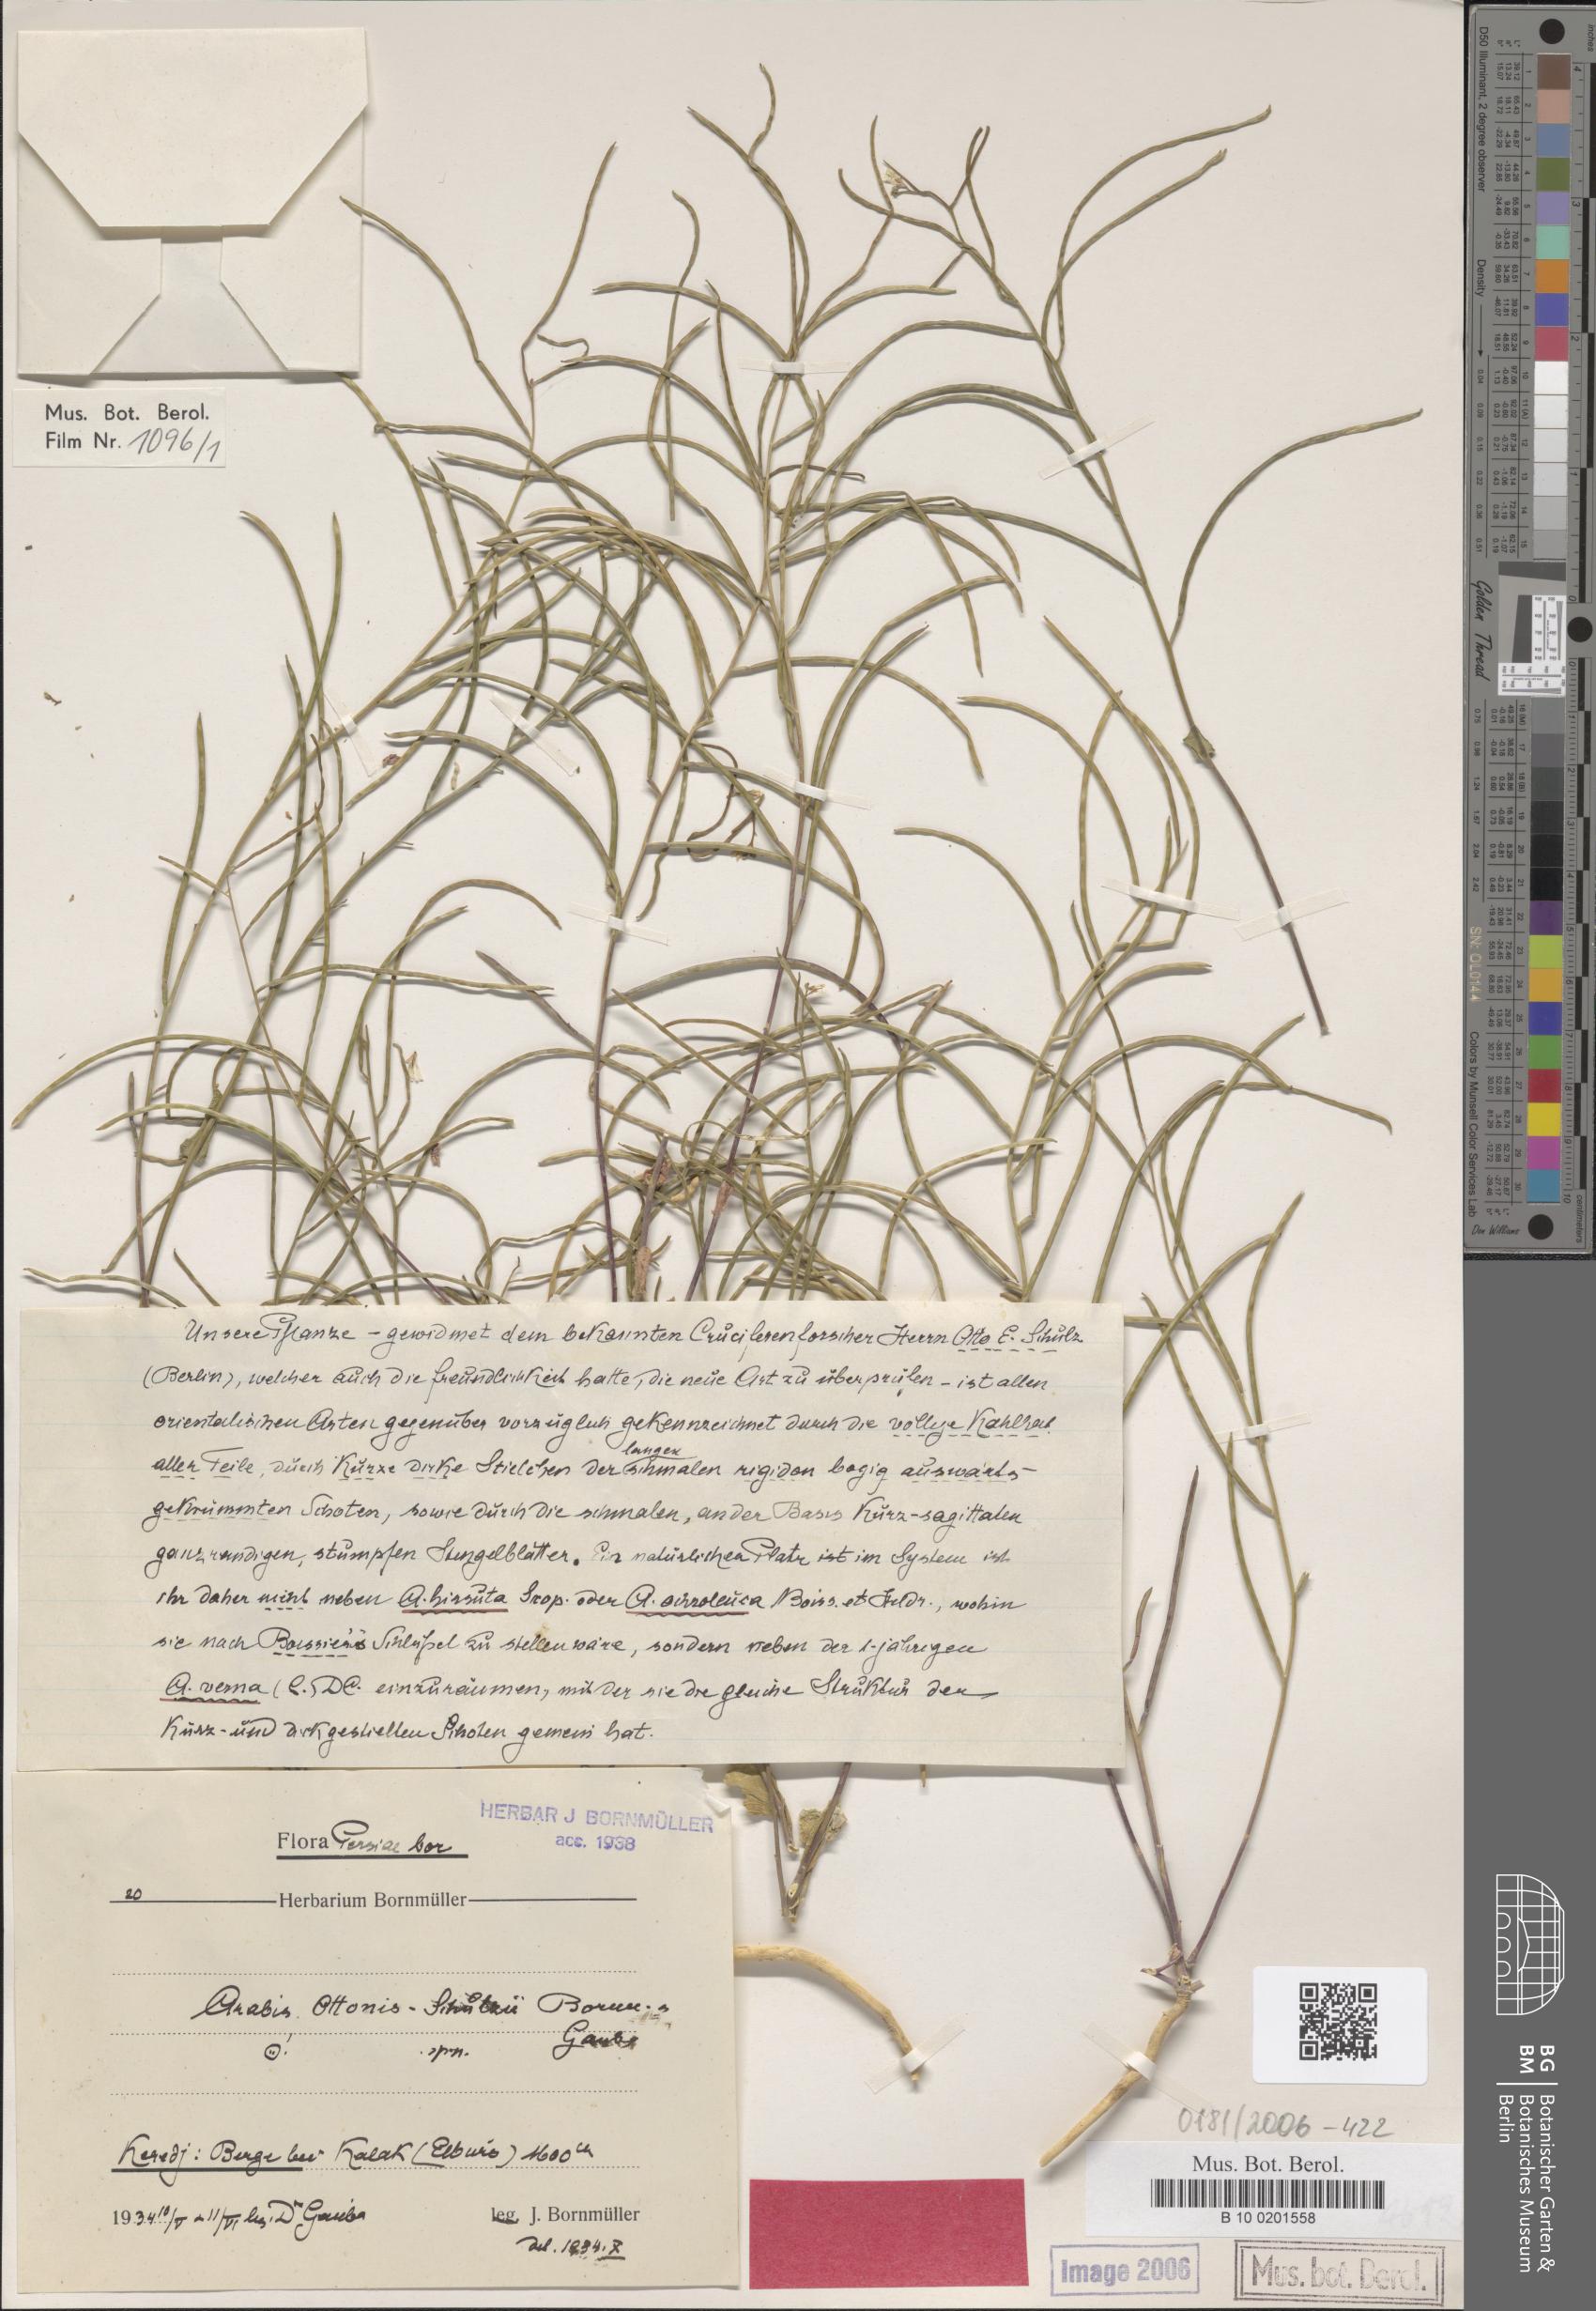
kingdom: Plantae
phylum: Tracheophyta
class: Magnoliopsida
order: Brassicales
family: Brassicaceae
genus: Arabis
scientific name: Arabis ottonis-schulzii
